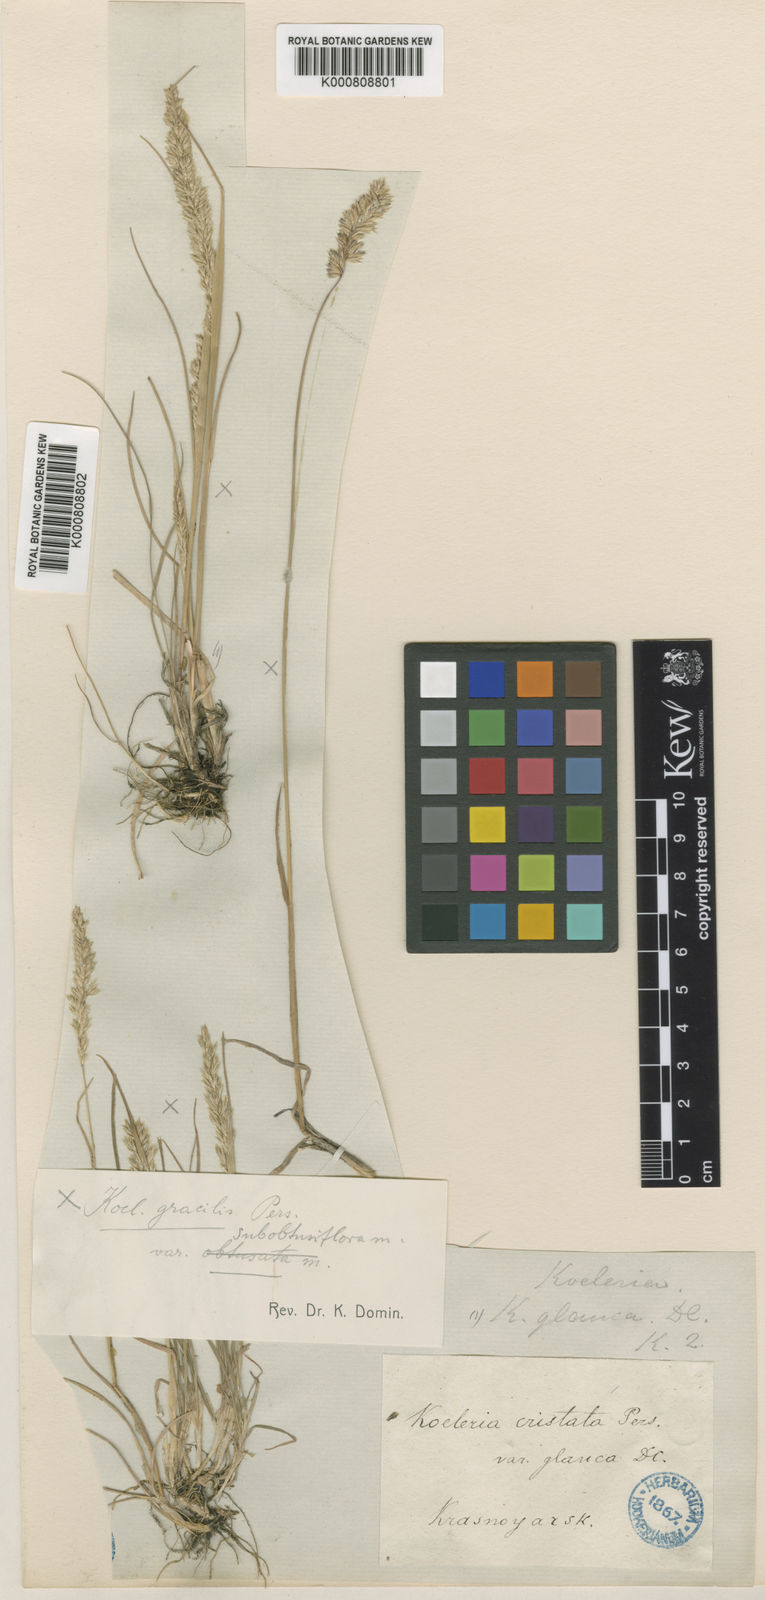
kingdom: Plantae
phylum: Tracheophyta
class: Liliopsida
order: Poales
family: Poaceae
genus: Koeleria
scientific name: Koeleria pyramidata
